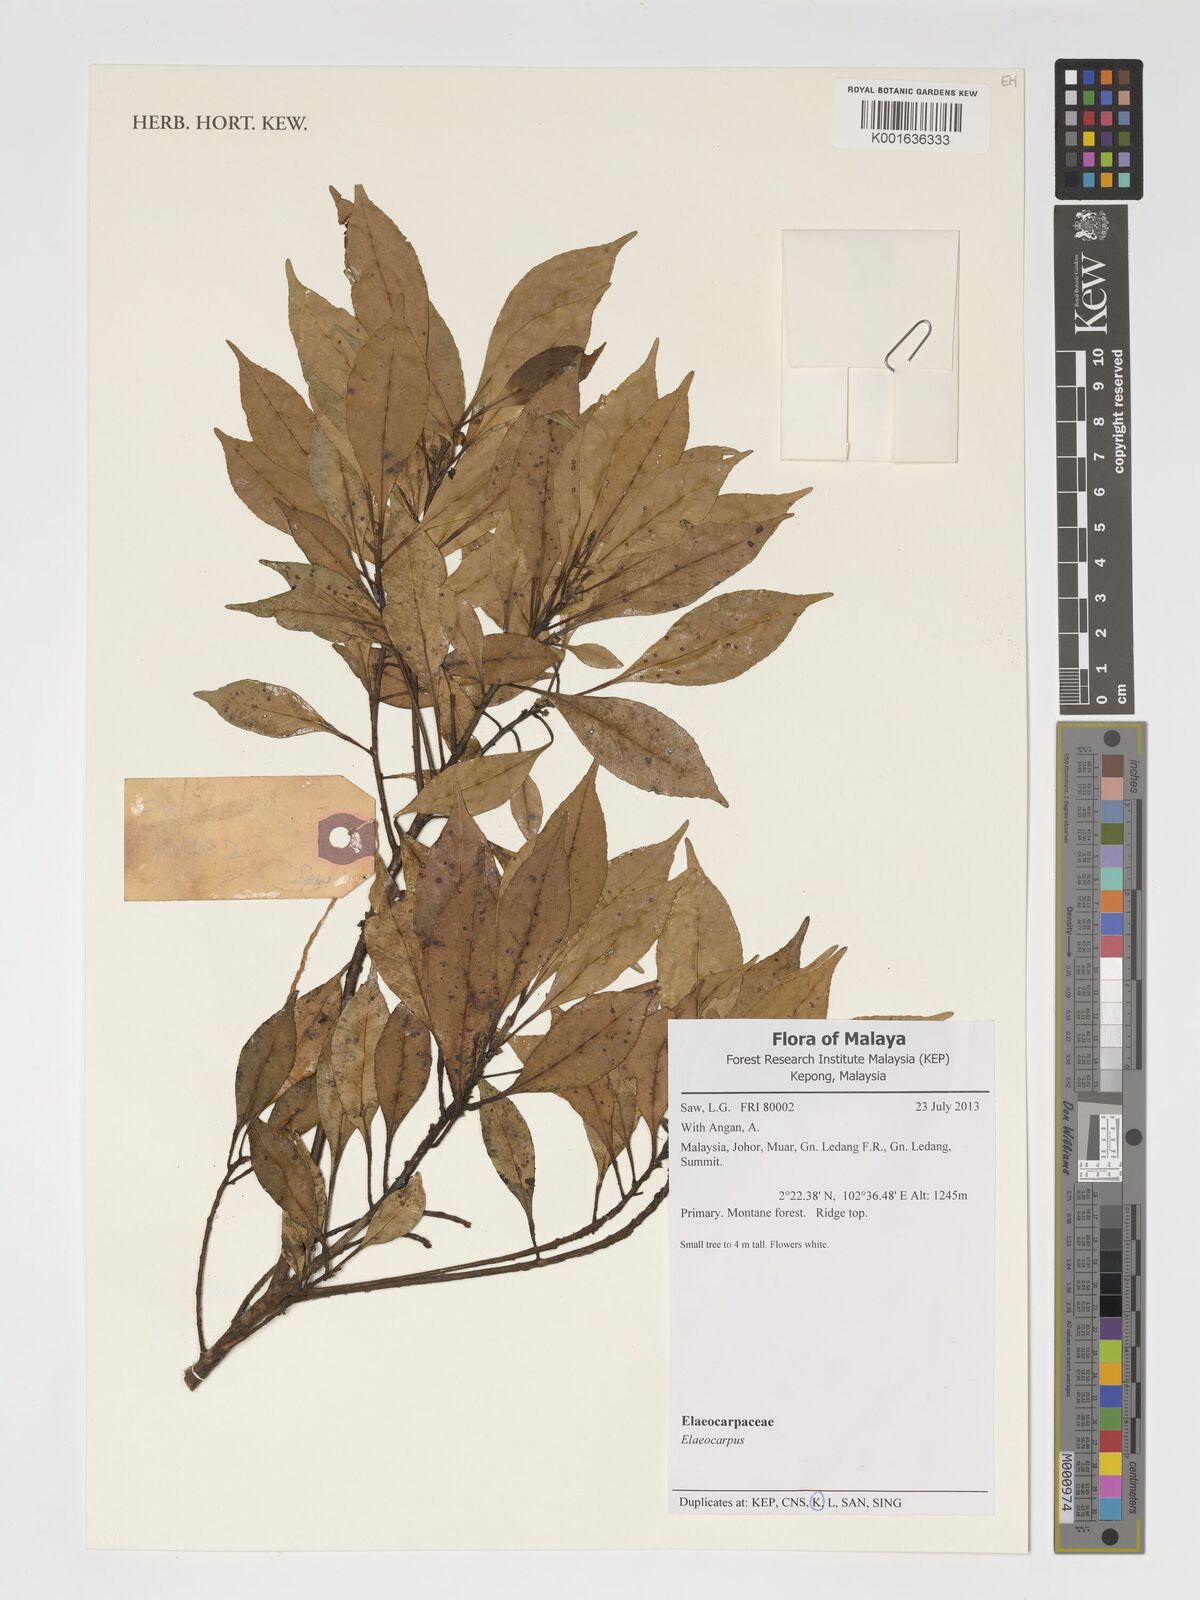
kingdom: Plantae
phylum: Tracheophyta
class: Magnoliopsida
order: Oxalidales
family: Elaeocarpaceae
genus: Elaeocarpus
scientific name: Elaeocarpus
